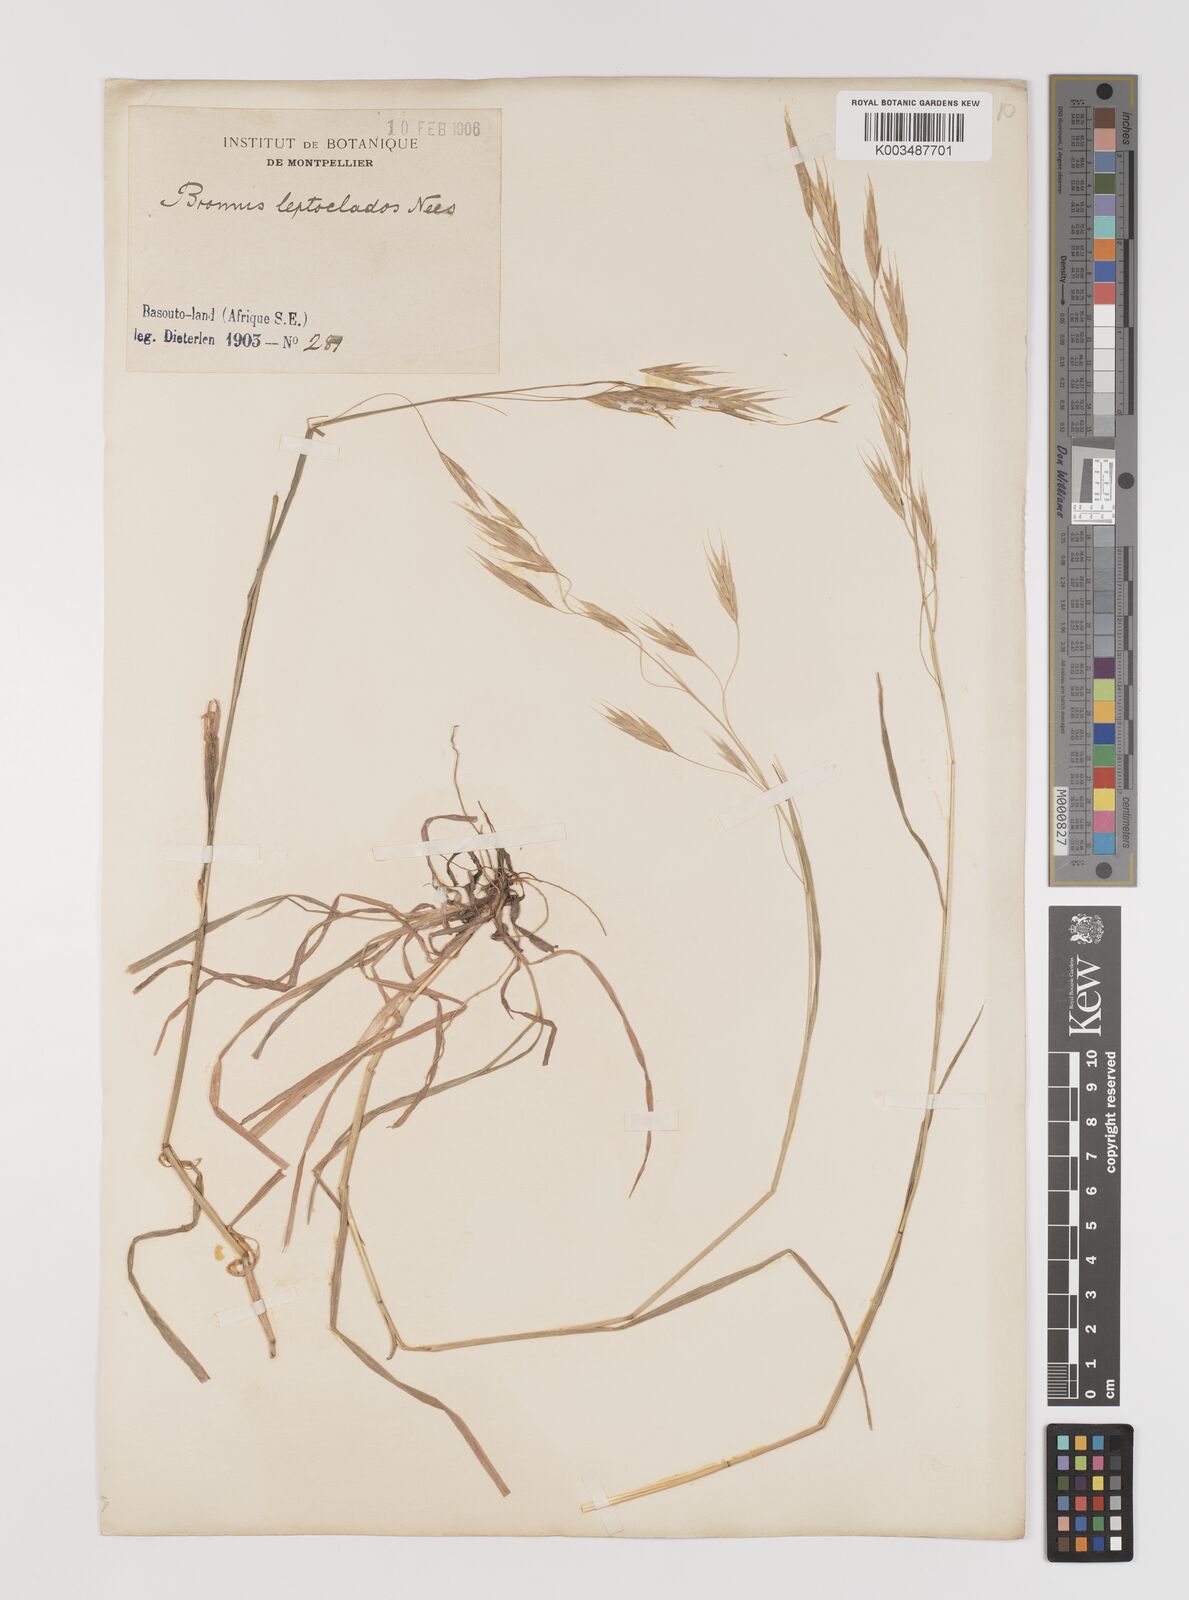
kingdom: Plantae
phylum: Tracheophyta
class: Liliopsida
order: Poales
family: Poaceae
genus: Bromus
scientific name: Bromus leptoclados
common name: Mountain bromegrass
